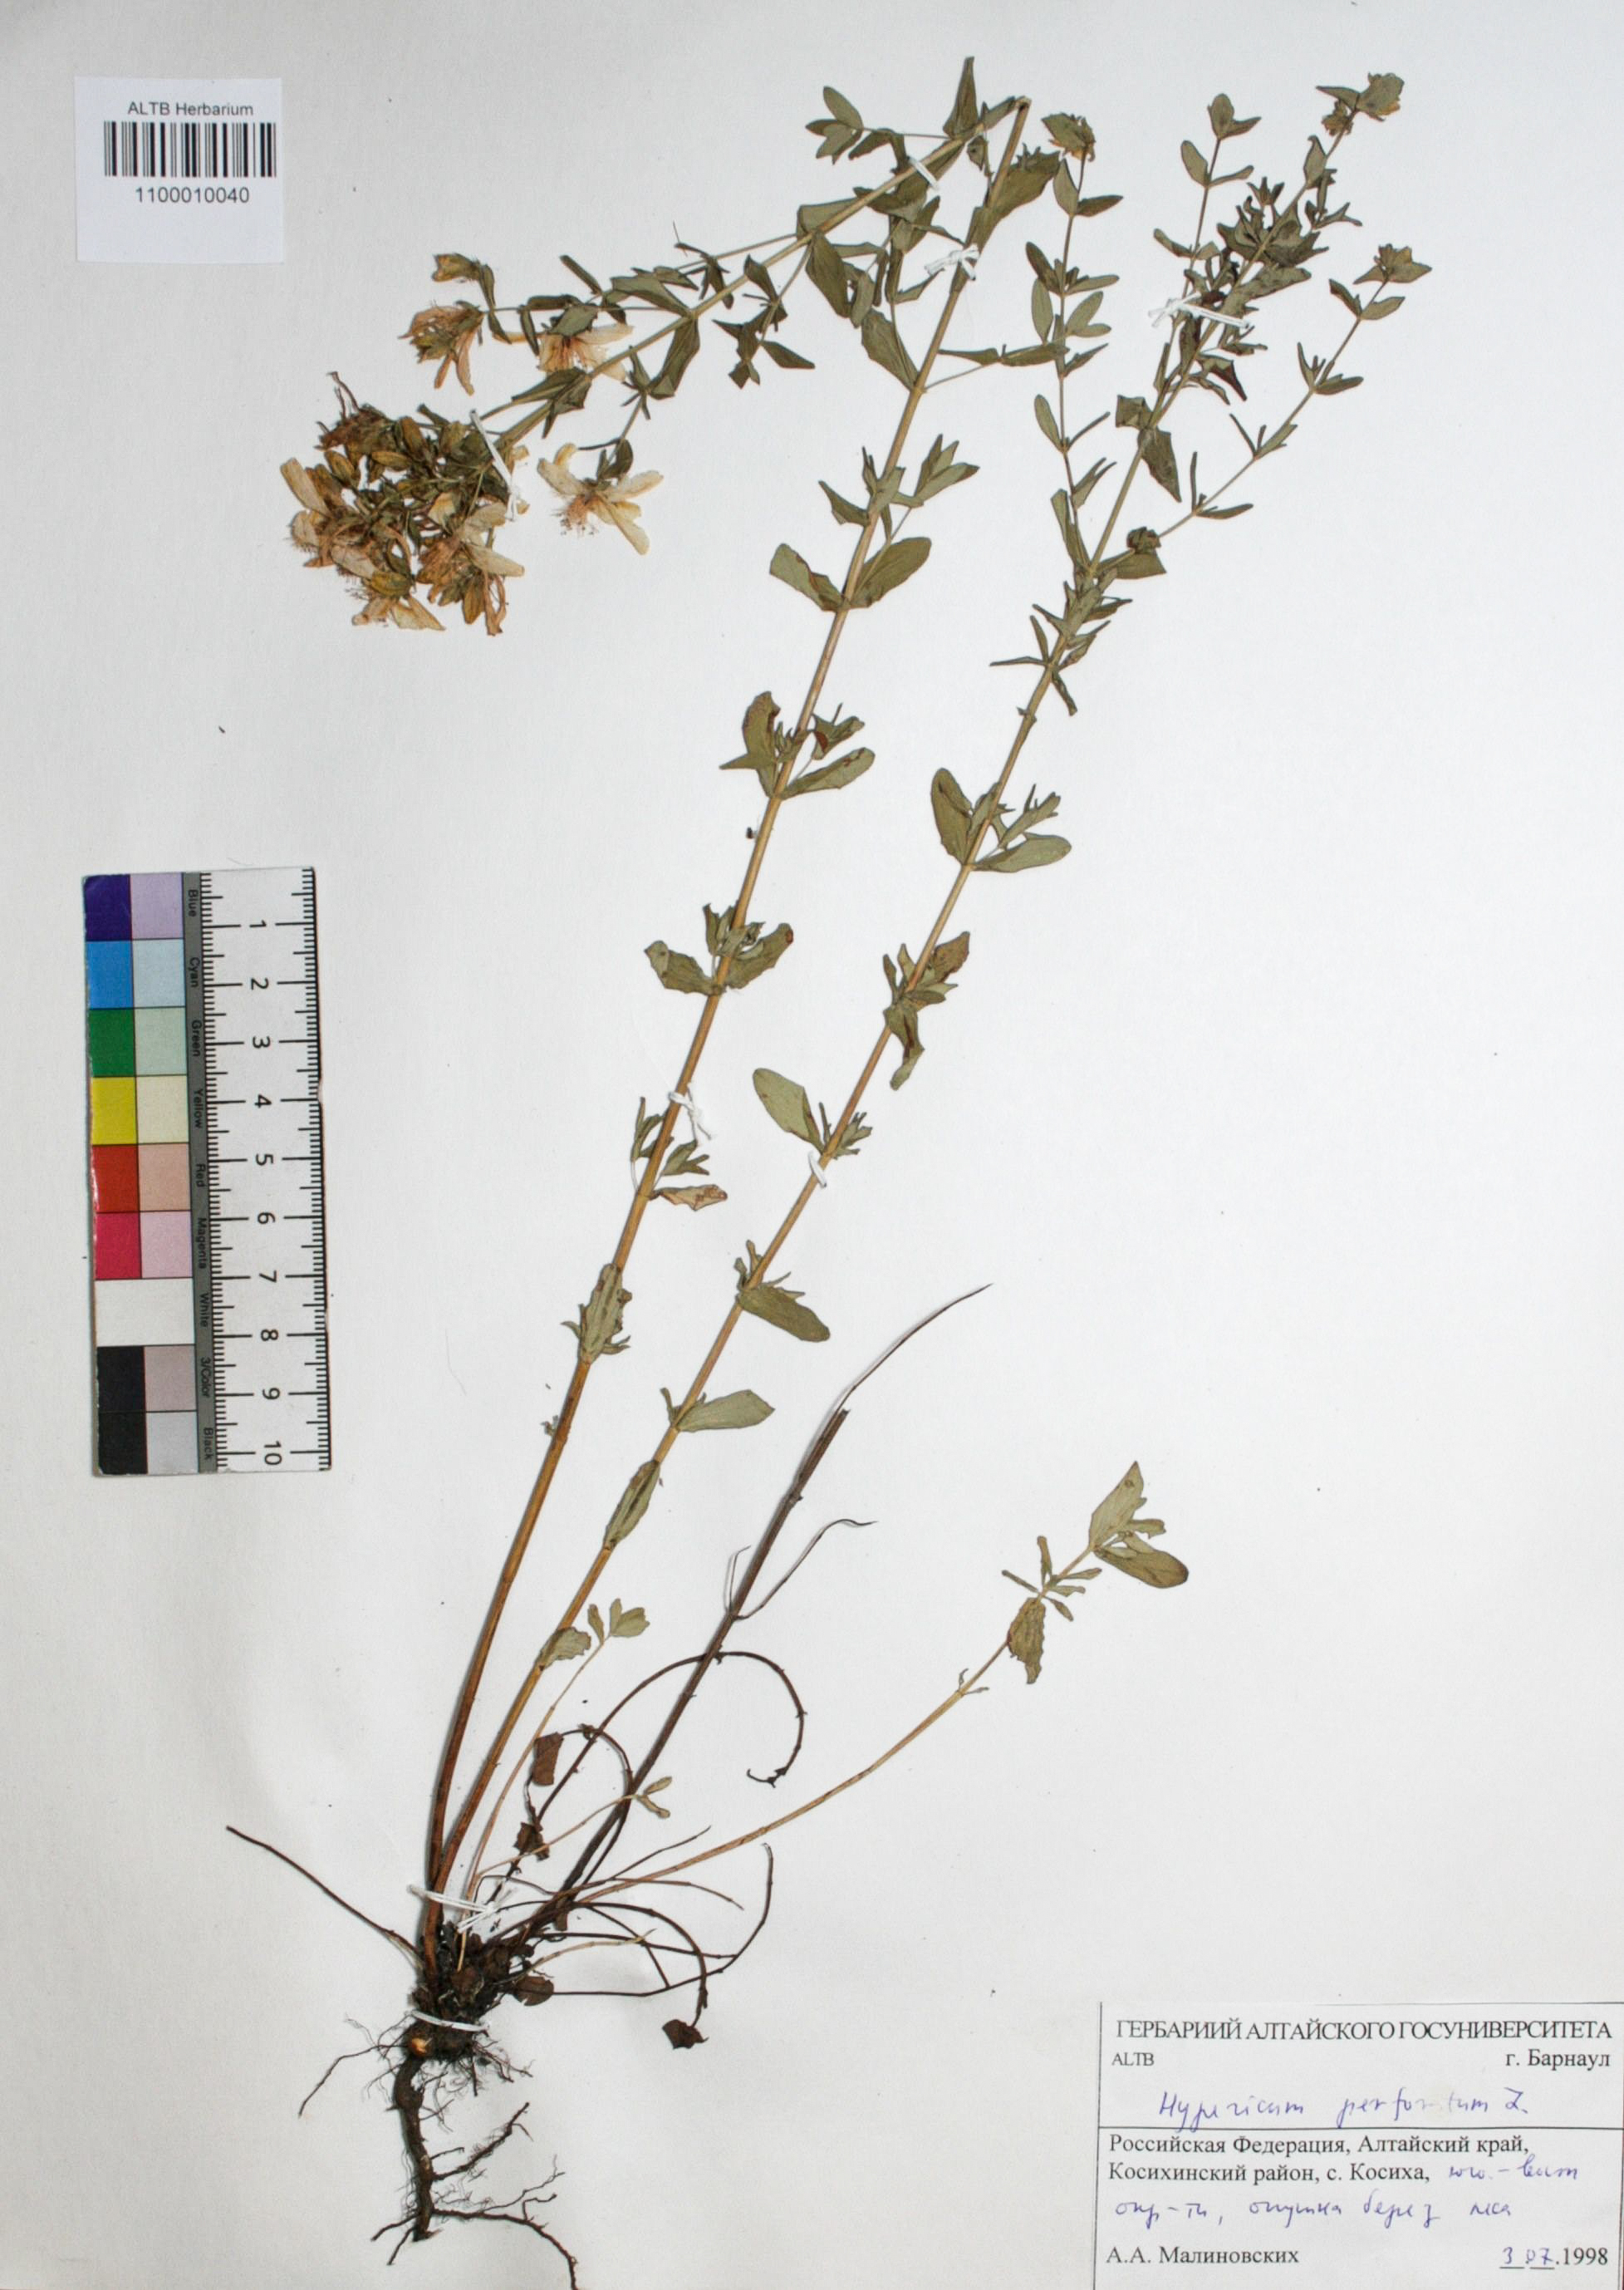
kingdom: Plantae
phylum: Tracheophyta
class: Magnoliopsida
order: Malpighiales
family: Hypericaceae
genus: Hypericum
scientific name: Hypericum perforatum
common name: Common st. johnswort
